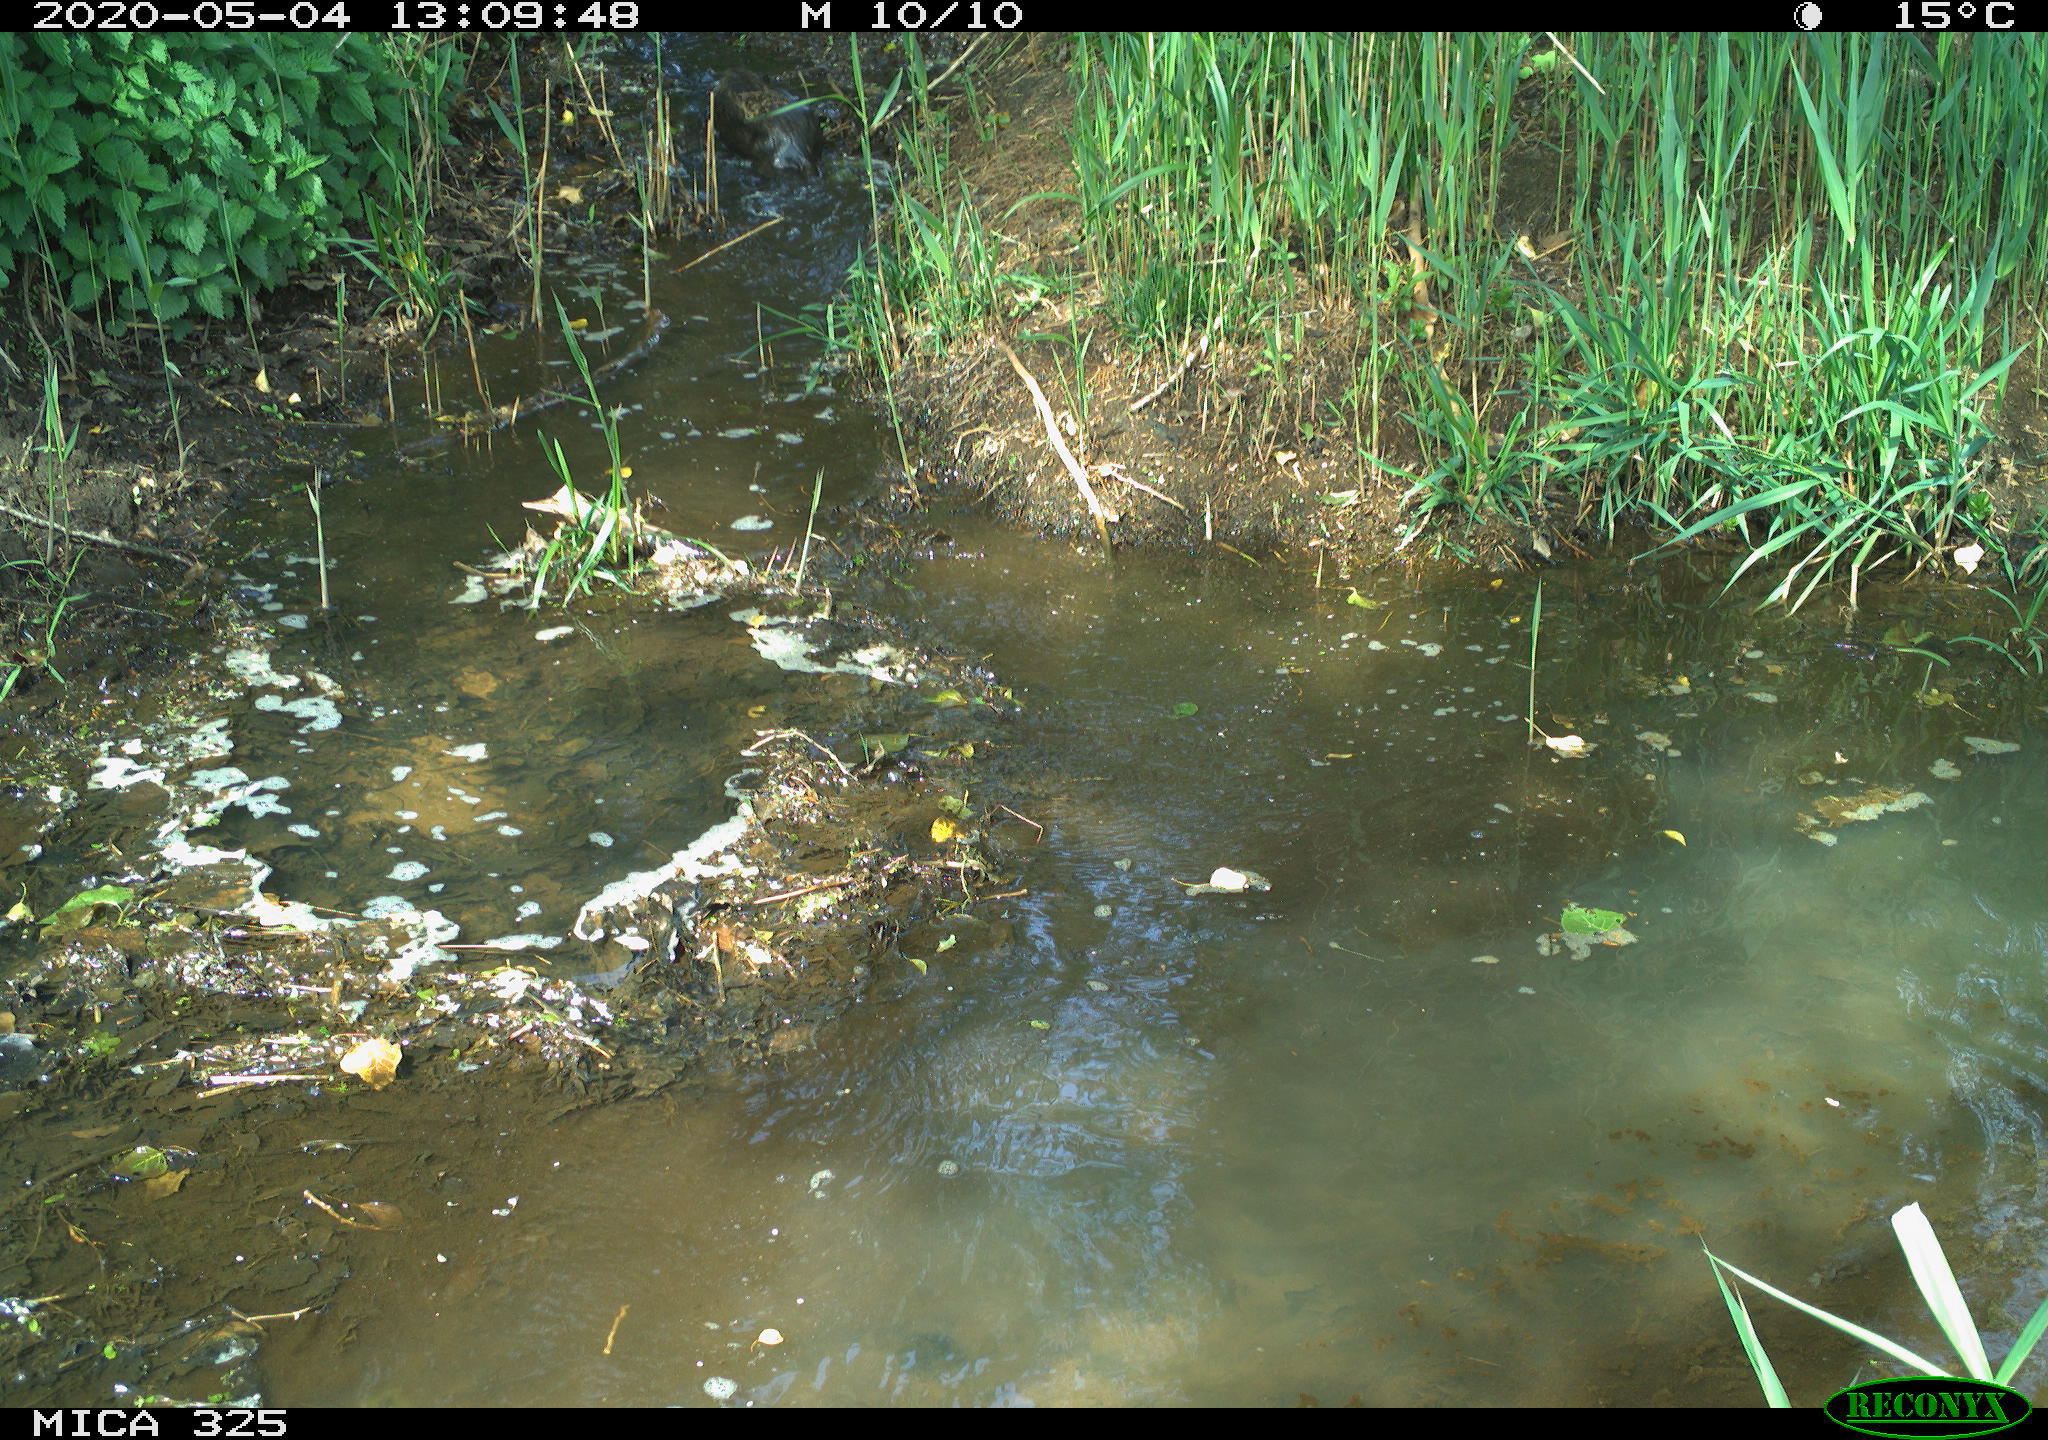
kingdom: Animalia
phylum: Chordata
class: Mammalia
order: Rodentia
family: Myocastoridae
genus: Myocastor
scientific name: Myocastor coypus
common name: Coypu
